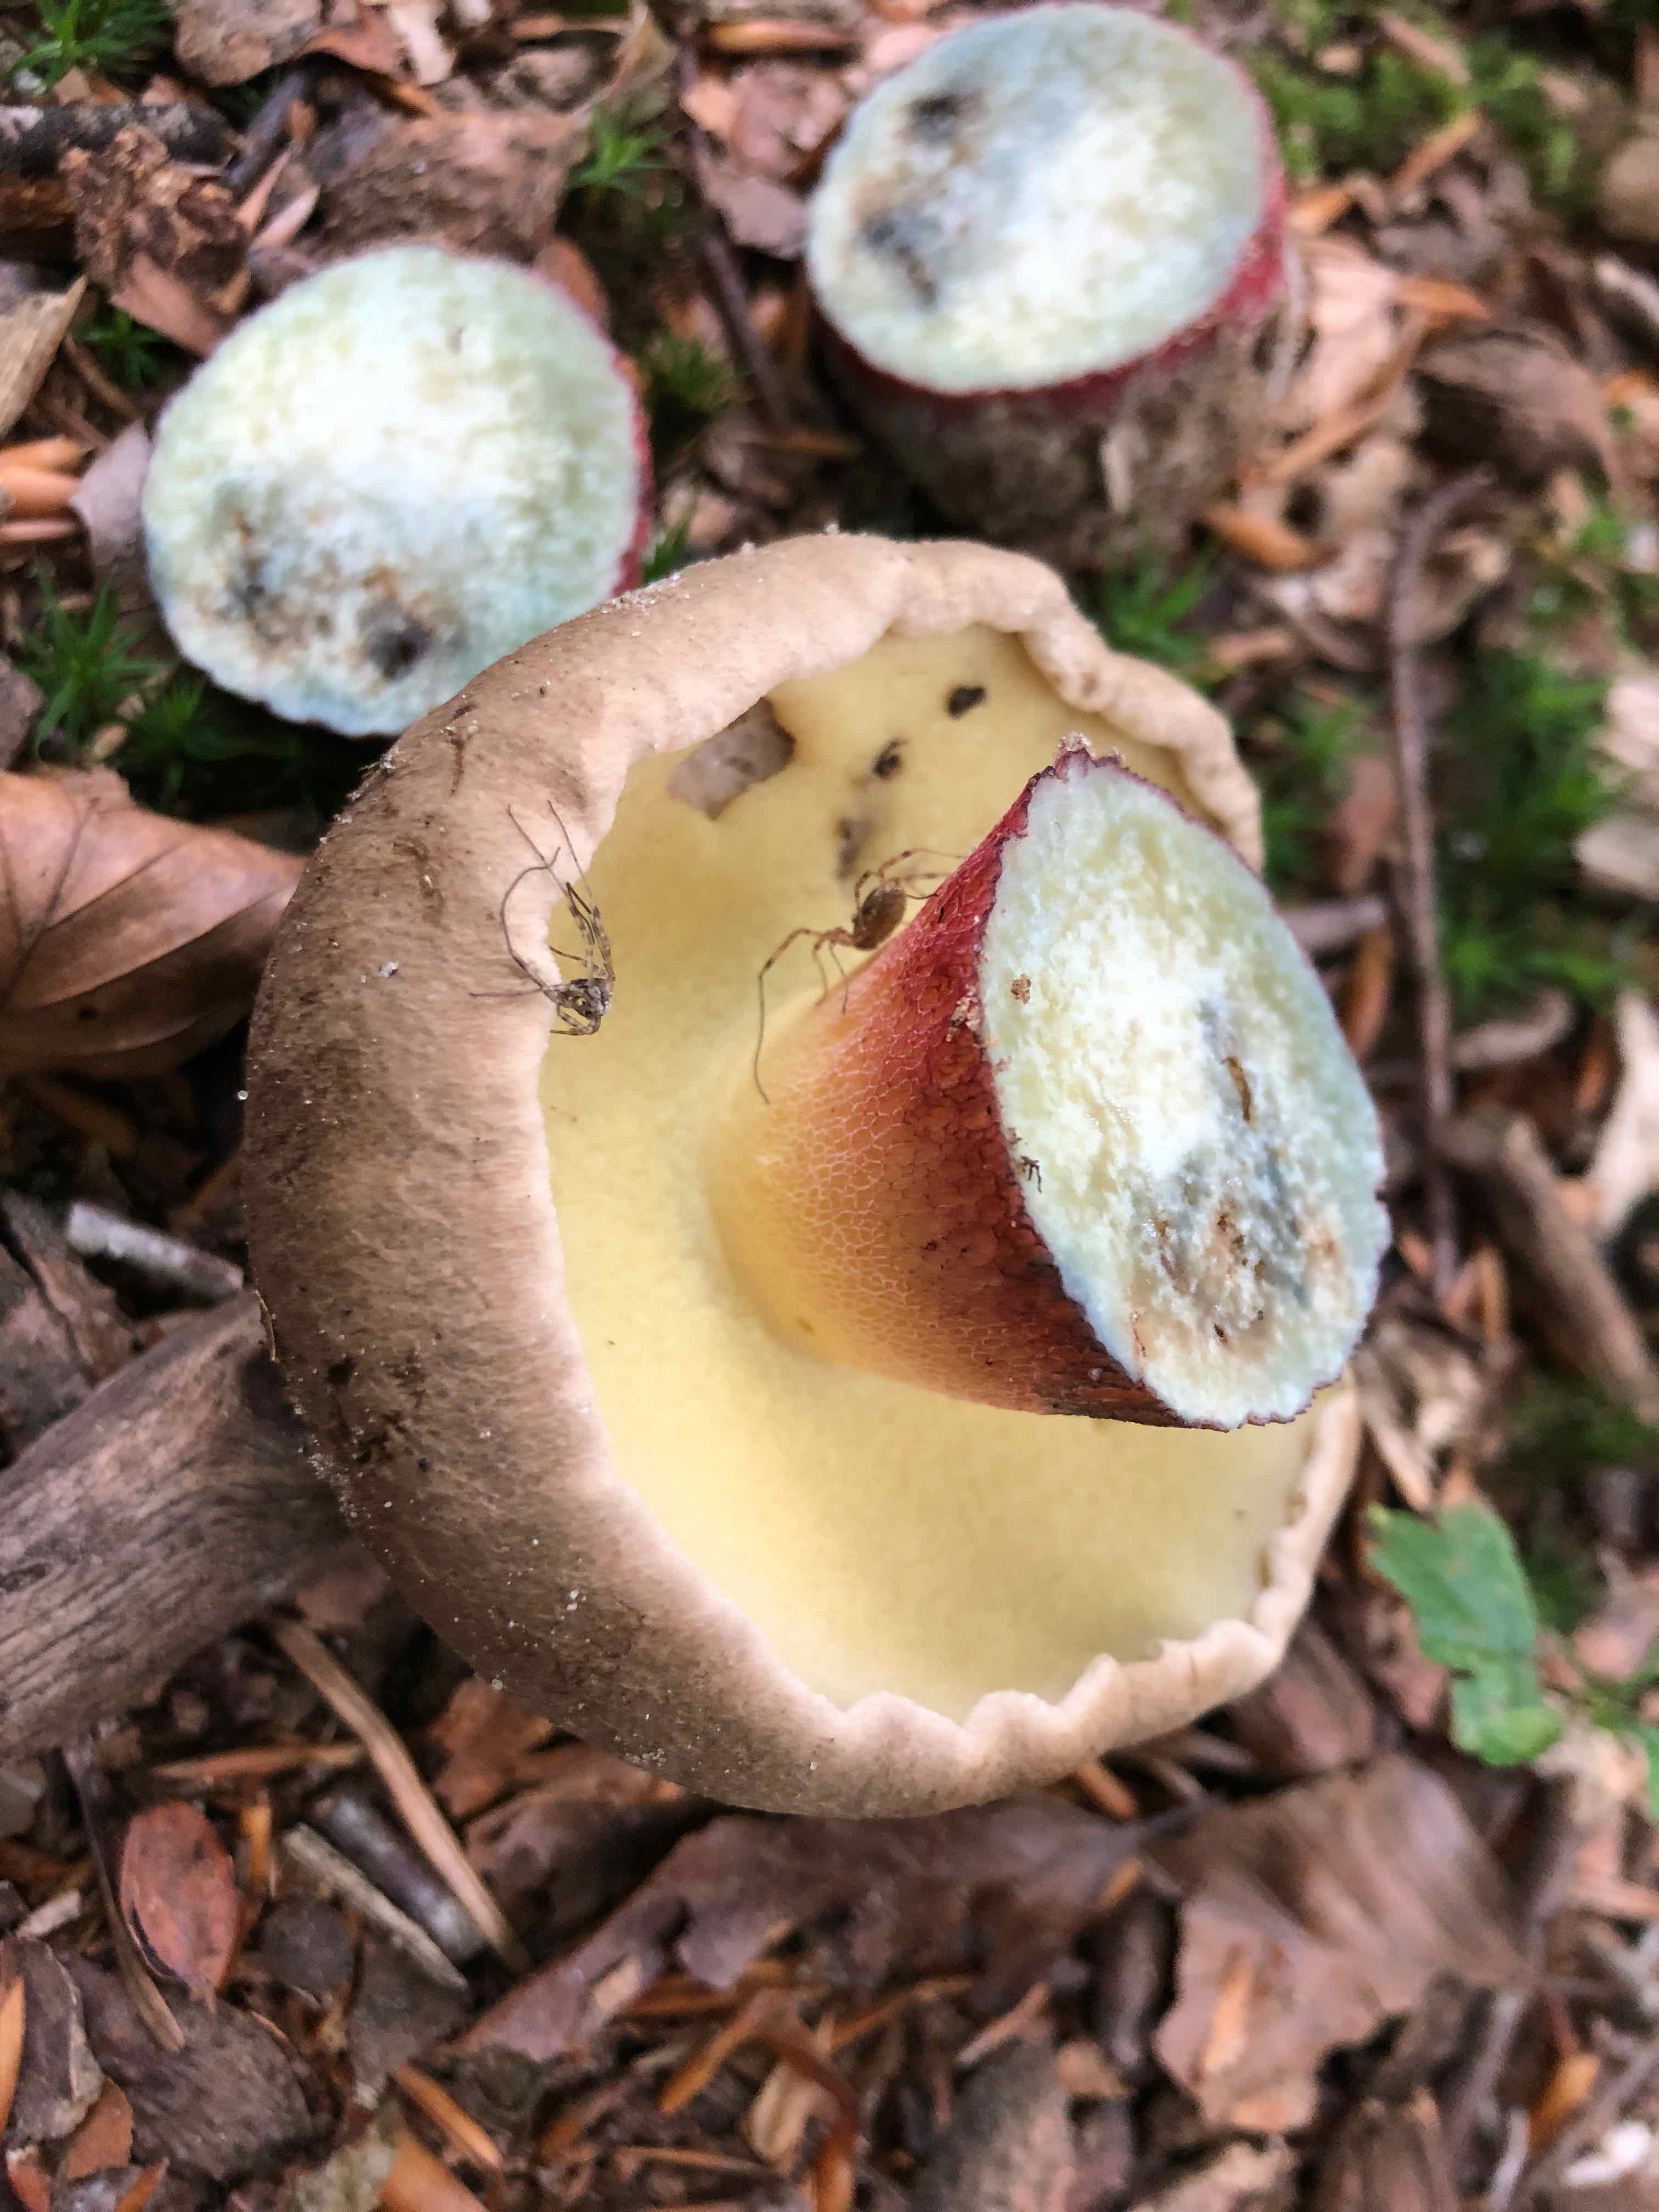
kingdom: Fungi
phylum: Basidiomycota
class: Agaricomycetes
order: Boletales
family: Boletaceae
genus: Caloboletus
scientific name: Caloboletus calopus
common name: skønfodet rørhat
